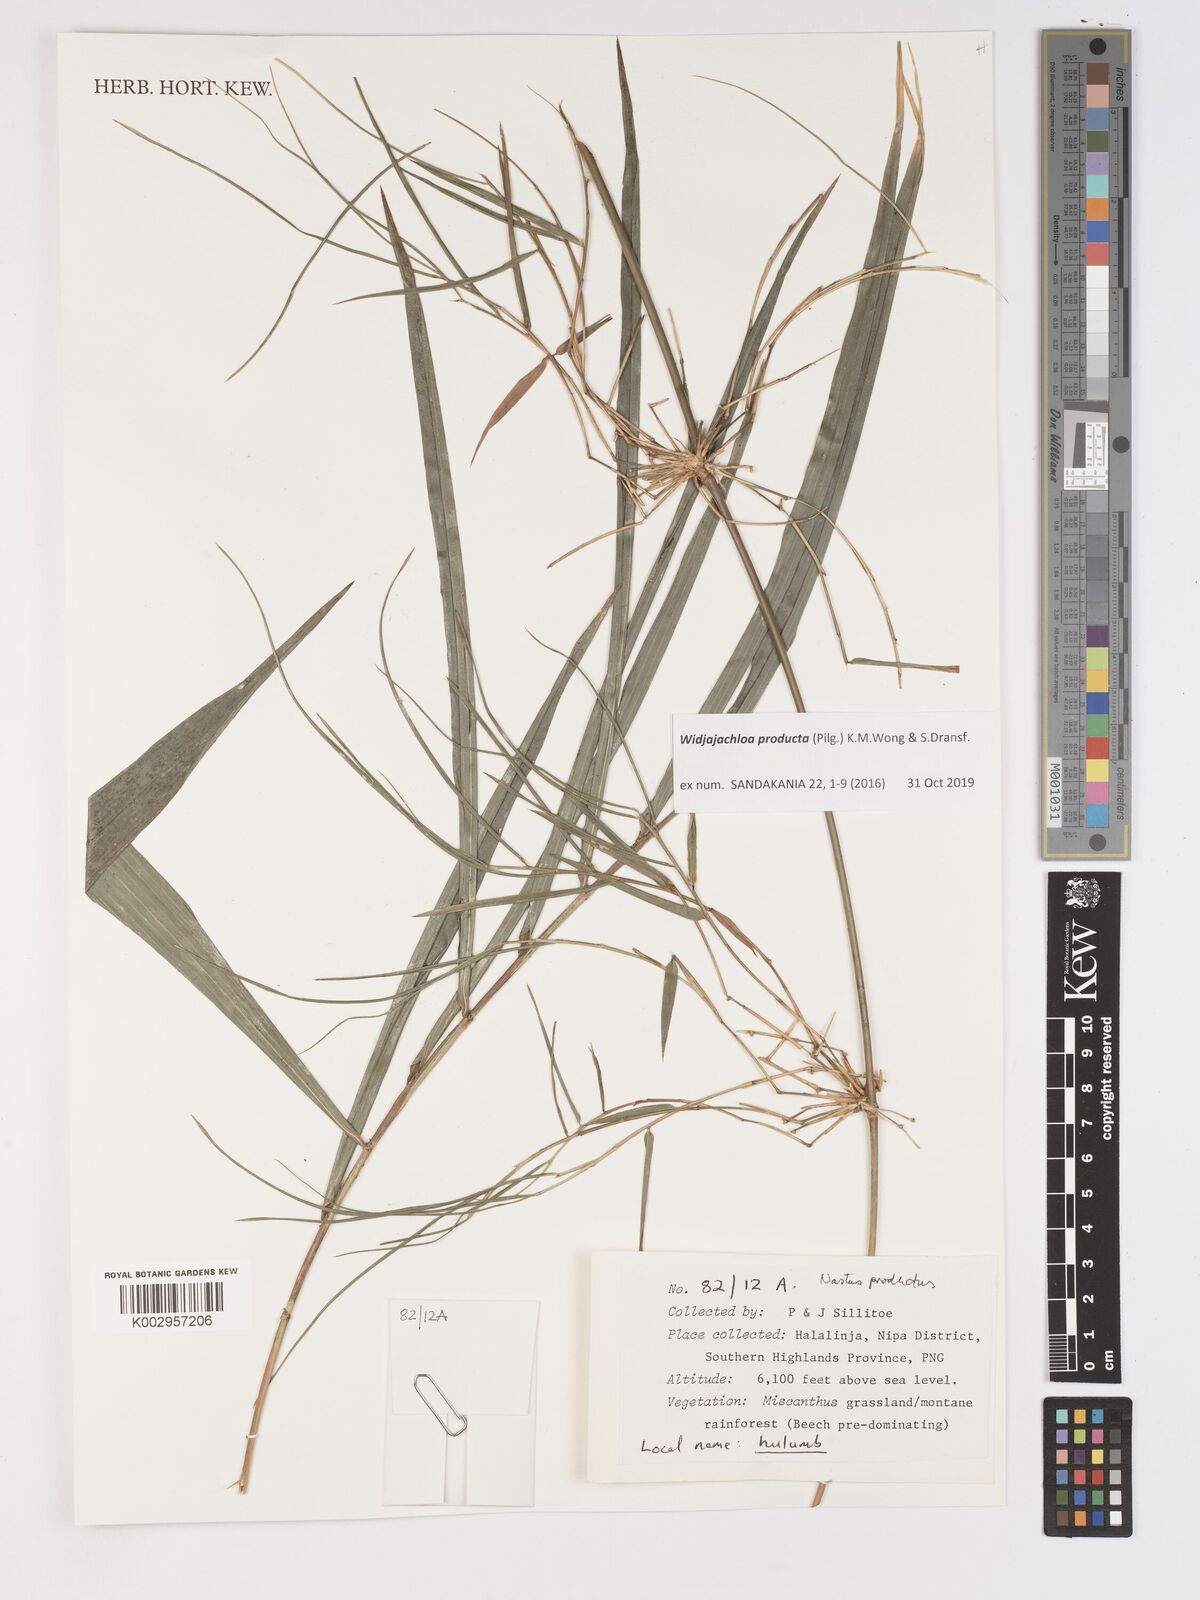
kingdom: Plantae
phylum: Tracheophyta
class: Liliopsida
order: Poales
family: Poaceae
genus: Widjajachloa
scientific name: Widjajachloa
